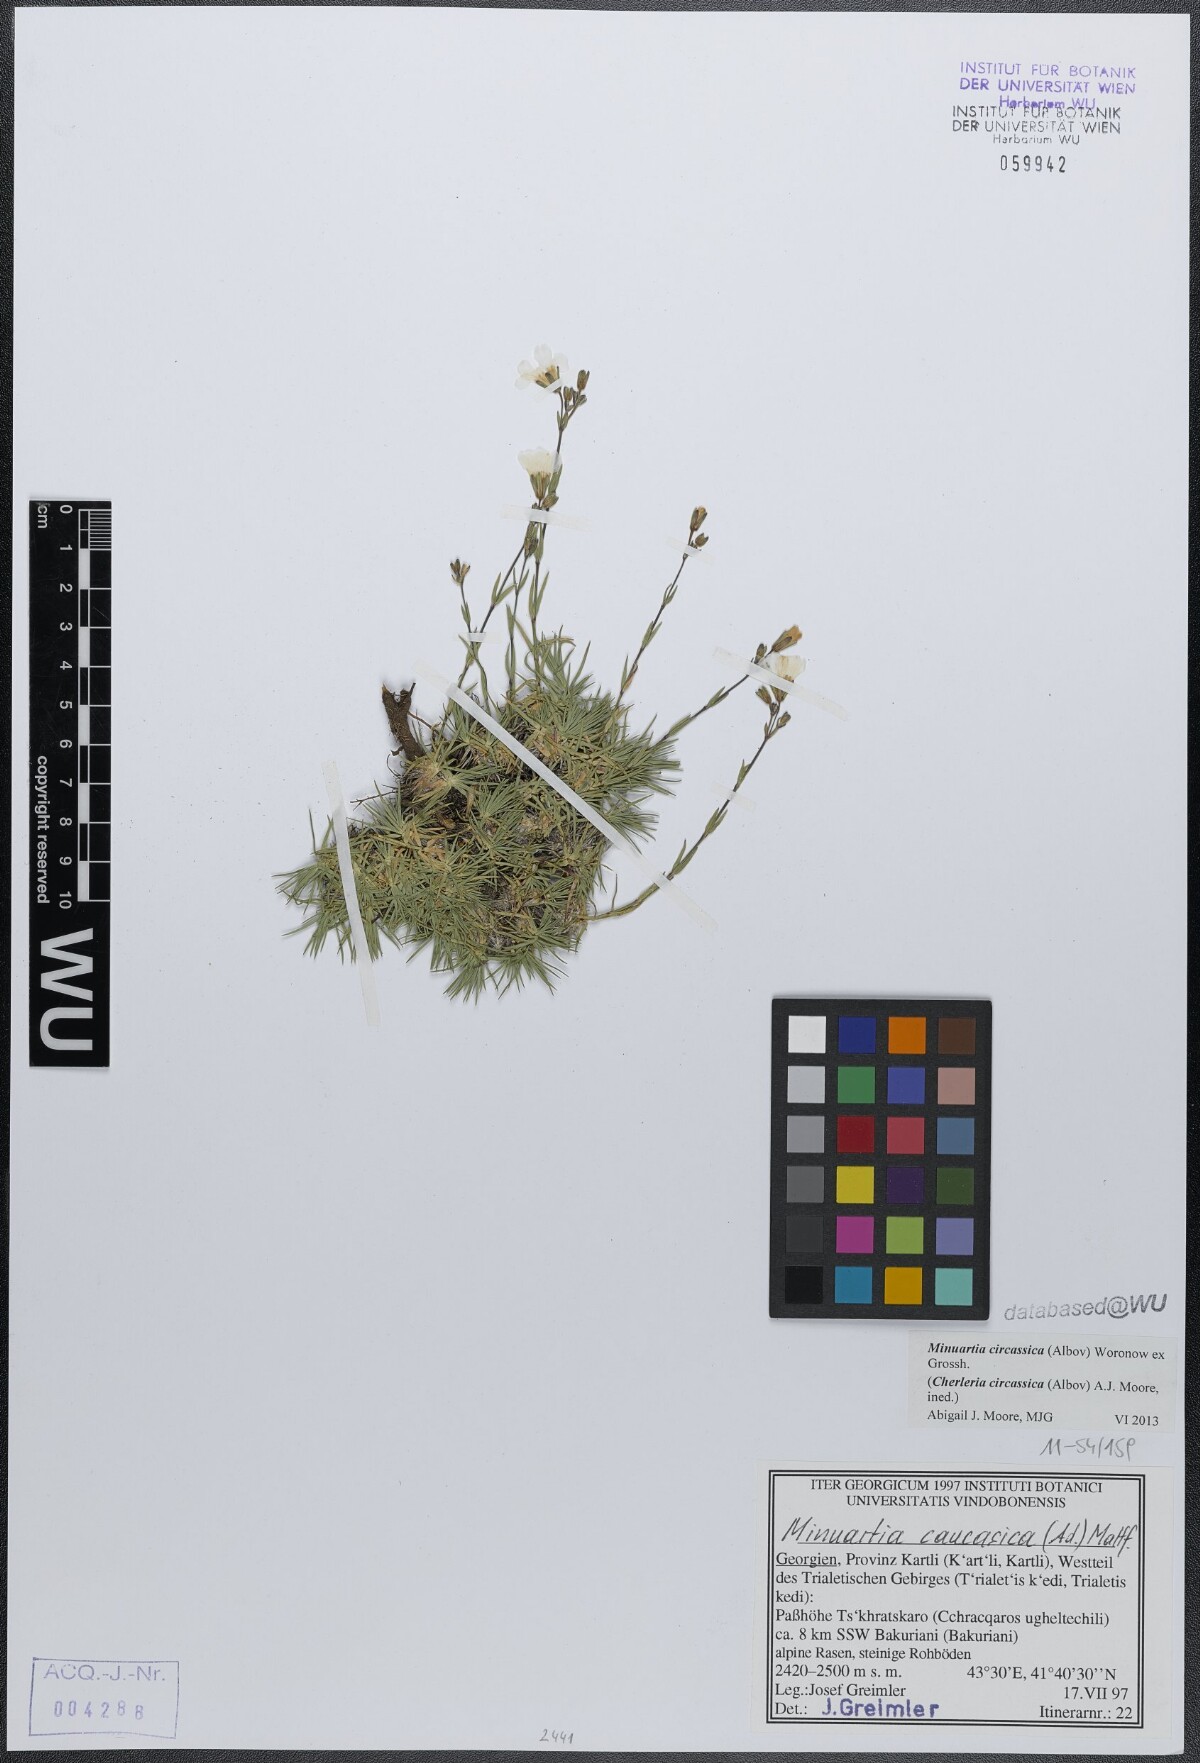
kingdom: Plantae
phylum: Tracheophyta
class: Magnoliopsida
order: Caryophyllales
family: Caryophyllaceae
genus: Cherleria
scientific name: Cherleria circassica
